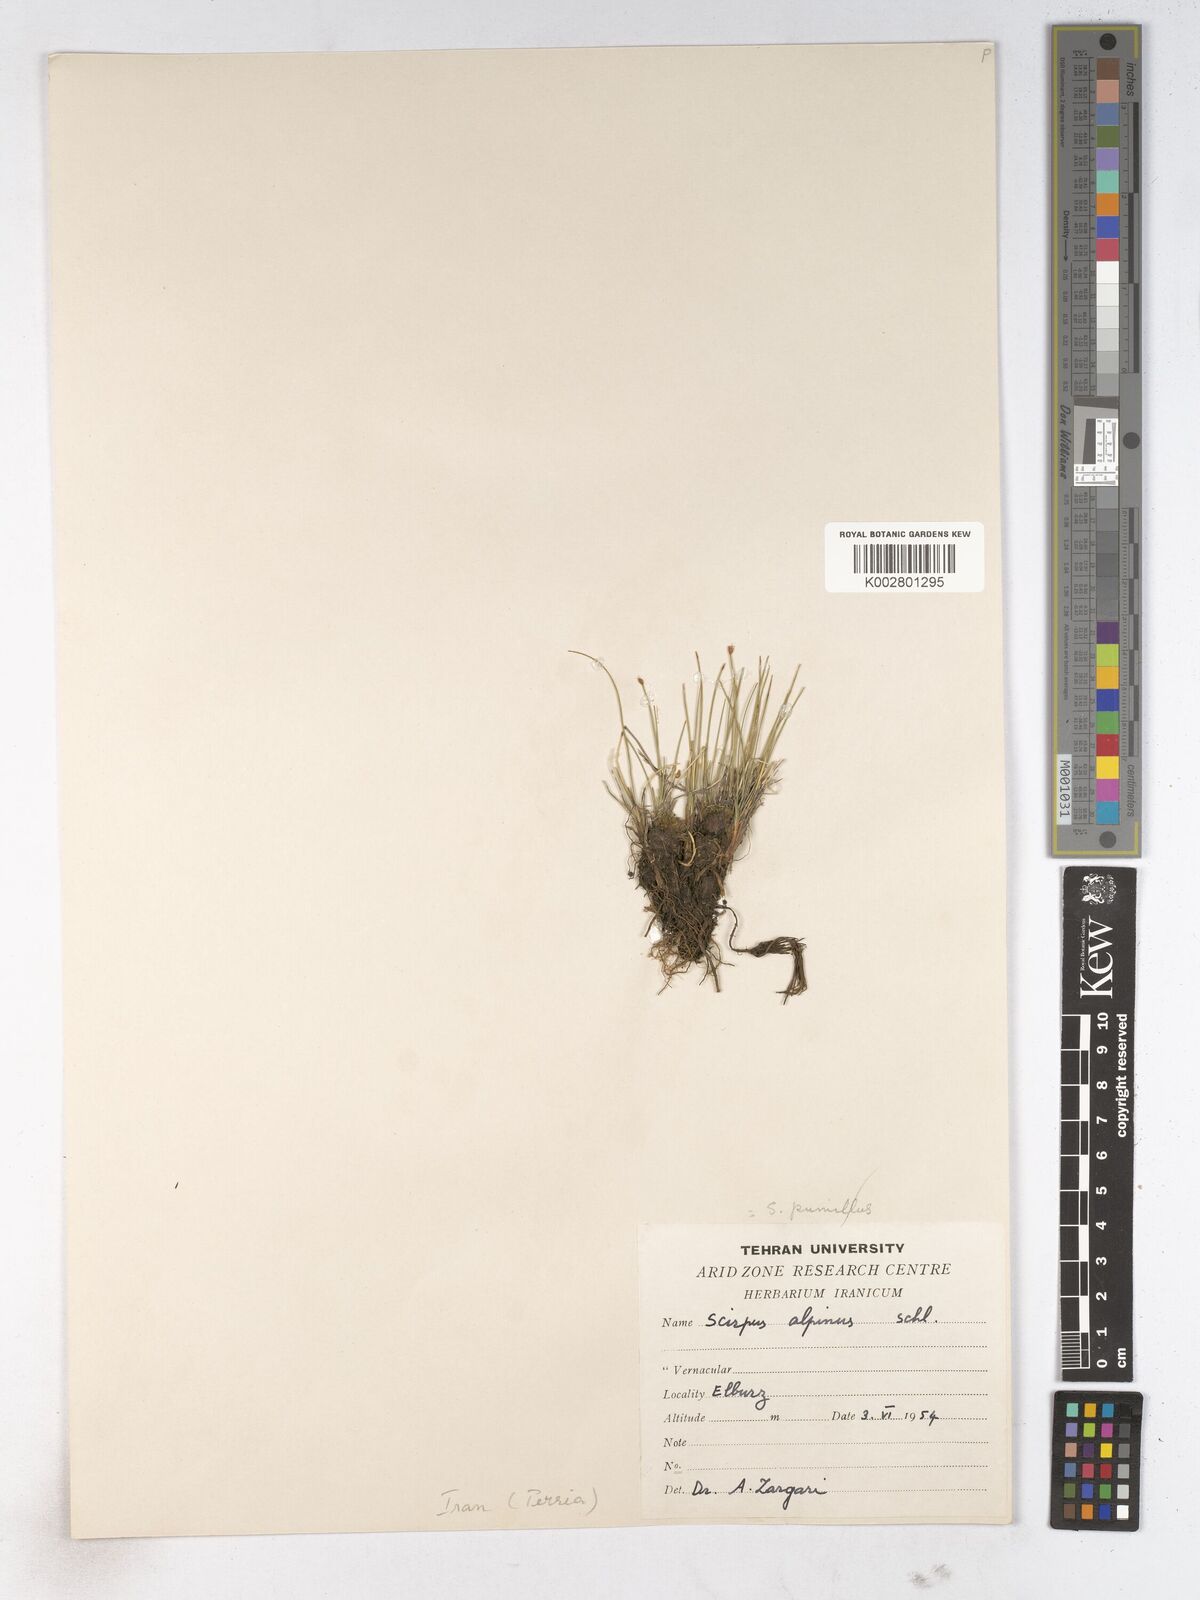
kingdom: Plantae
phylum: Tracheophyta
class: Liliopsida
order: Poales
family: Cyperaceae
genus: Trichophorum
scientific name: Trichophorum pumilum
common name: Rolland's bulrush
